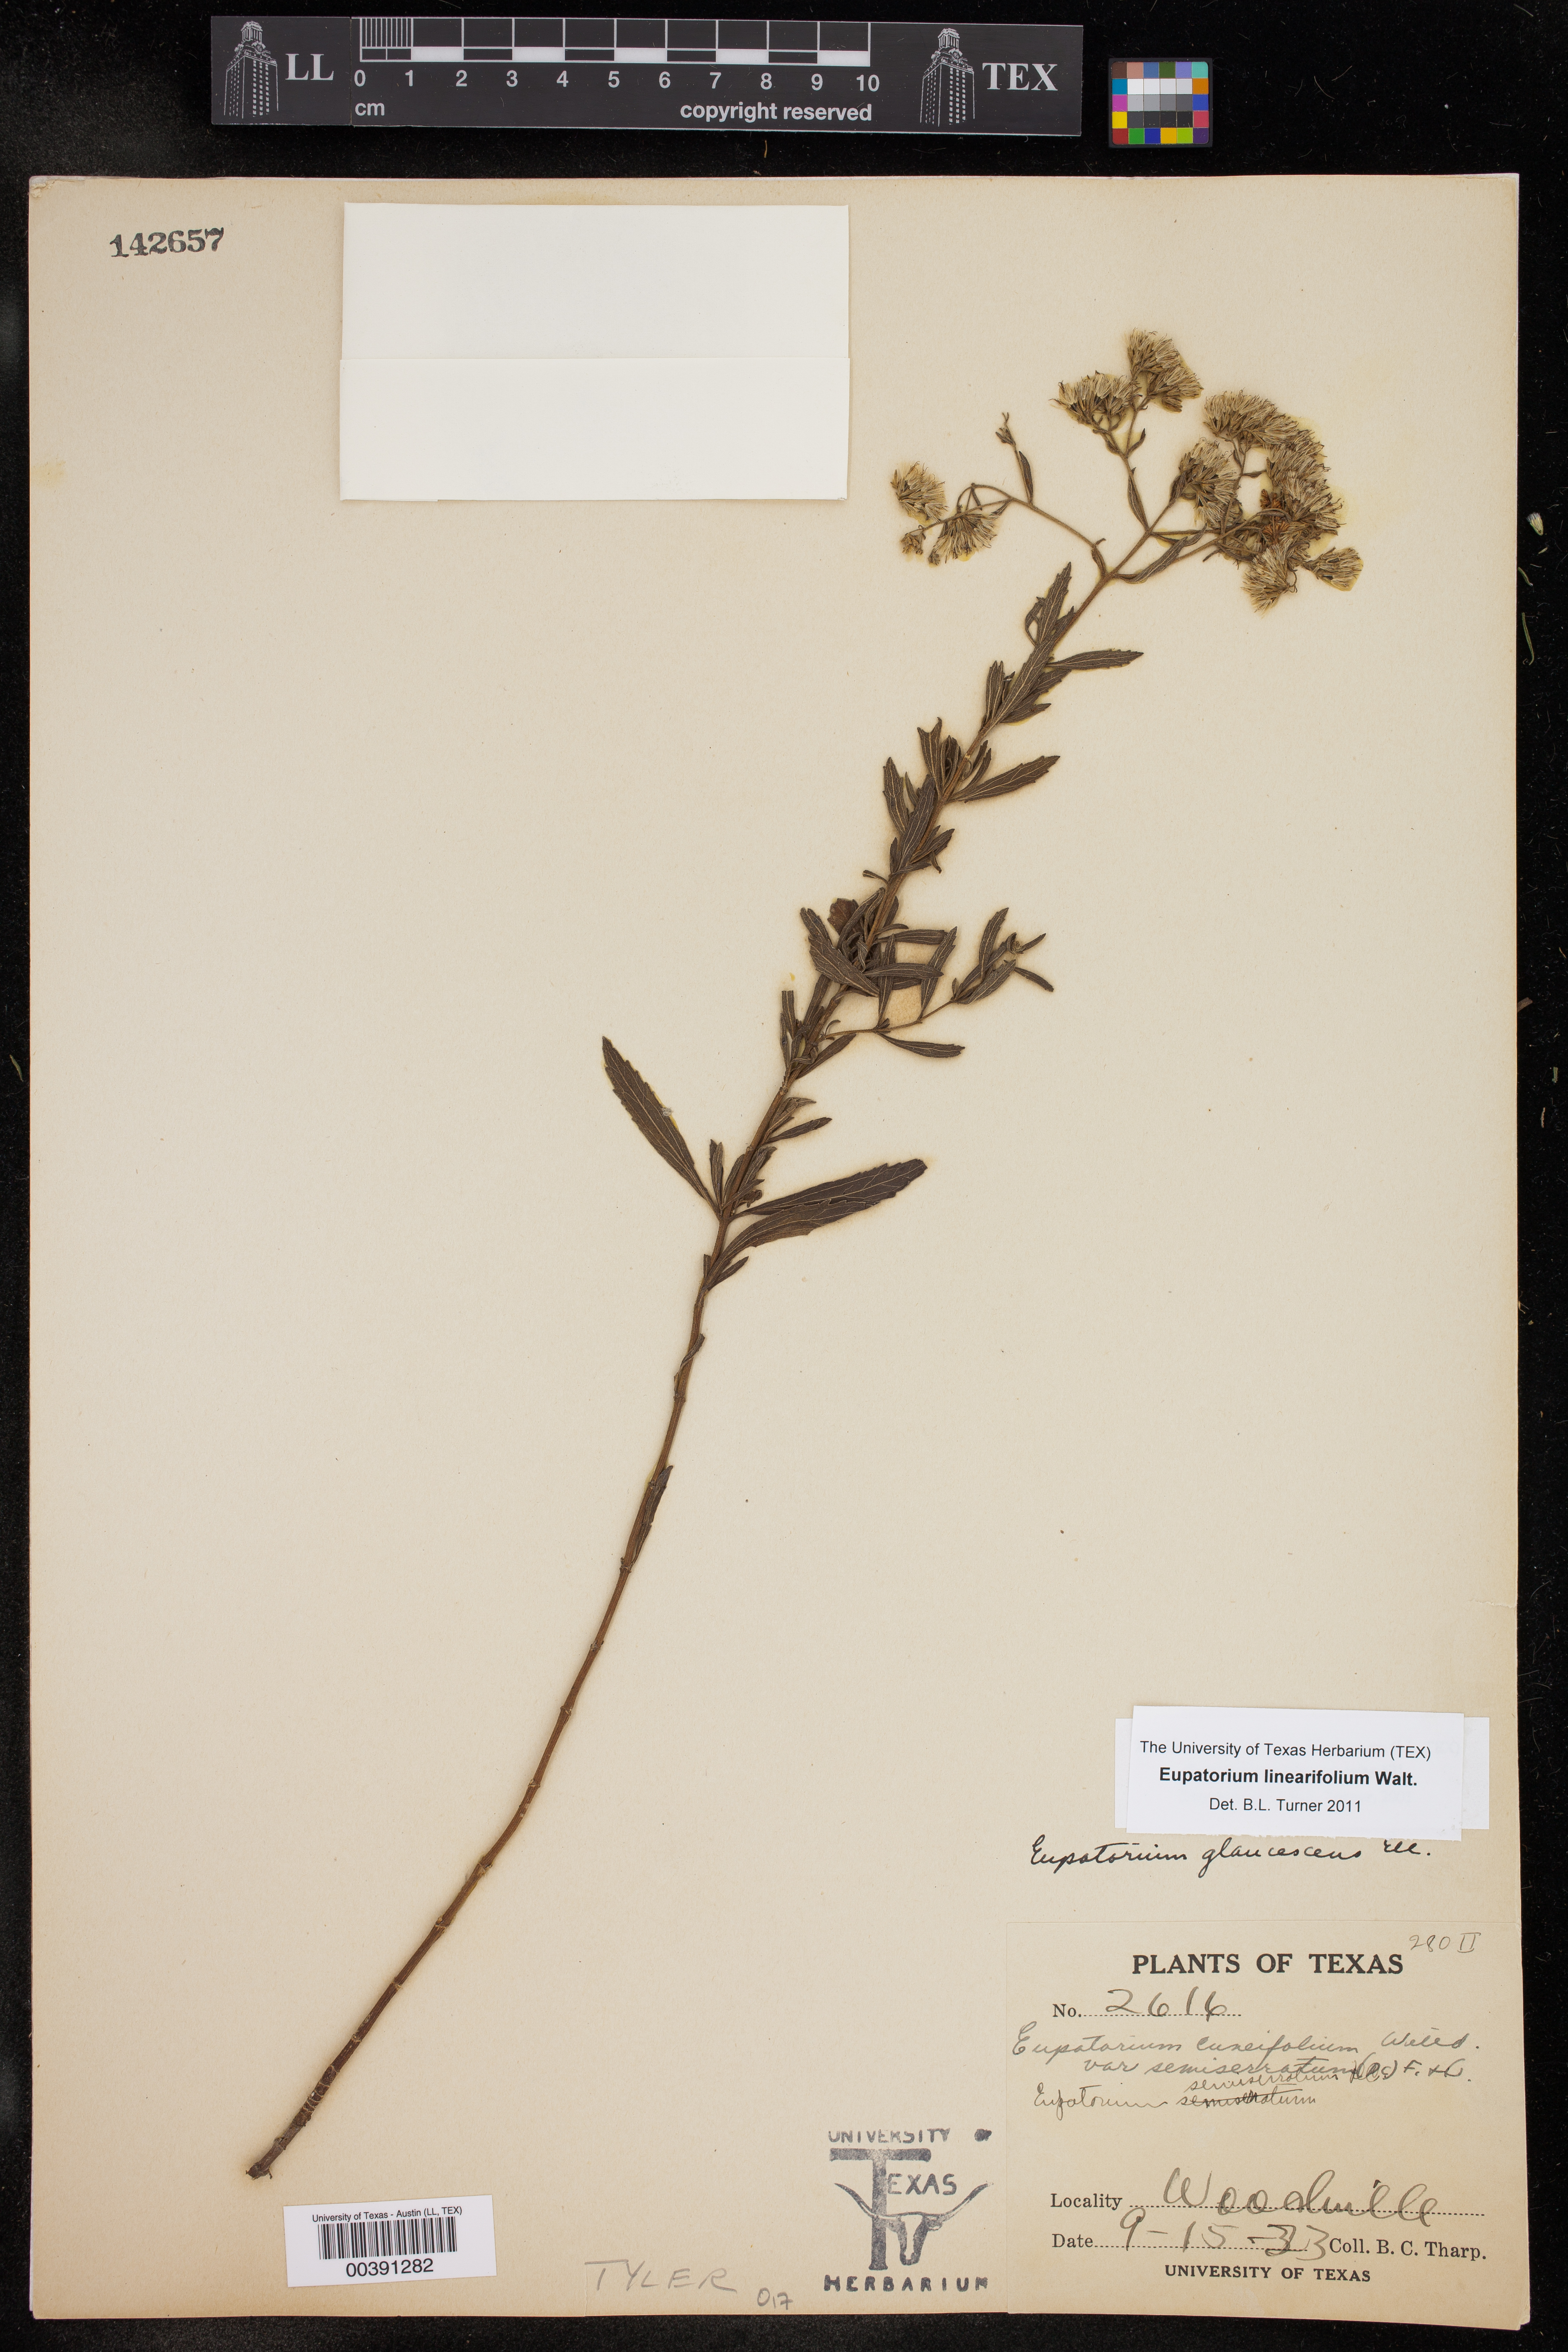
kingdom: Plantae
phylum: Tracheophyta
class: Magnoliopsida
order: Asterales
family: Asteraceae
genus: Eupatorium
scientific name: Eupatorium linearifolium
